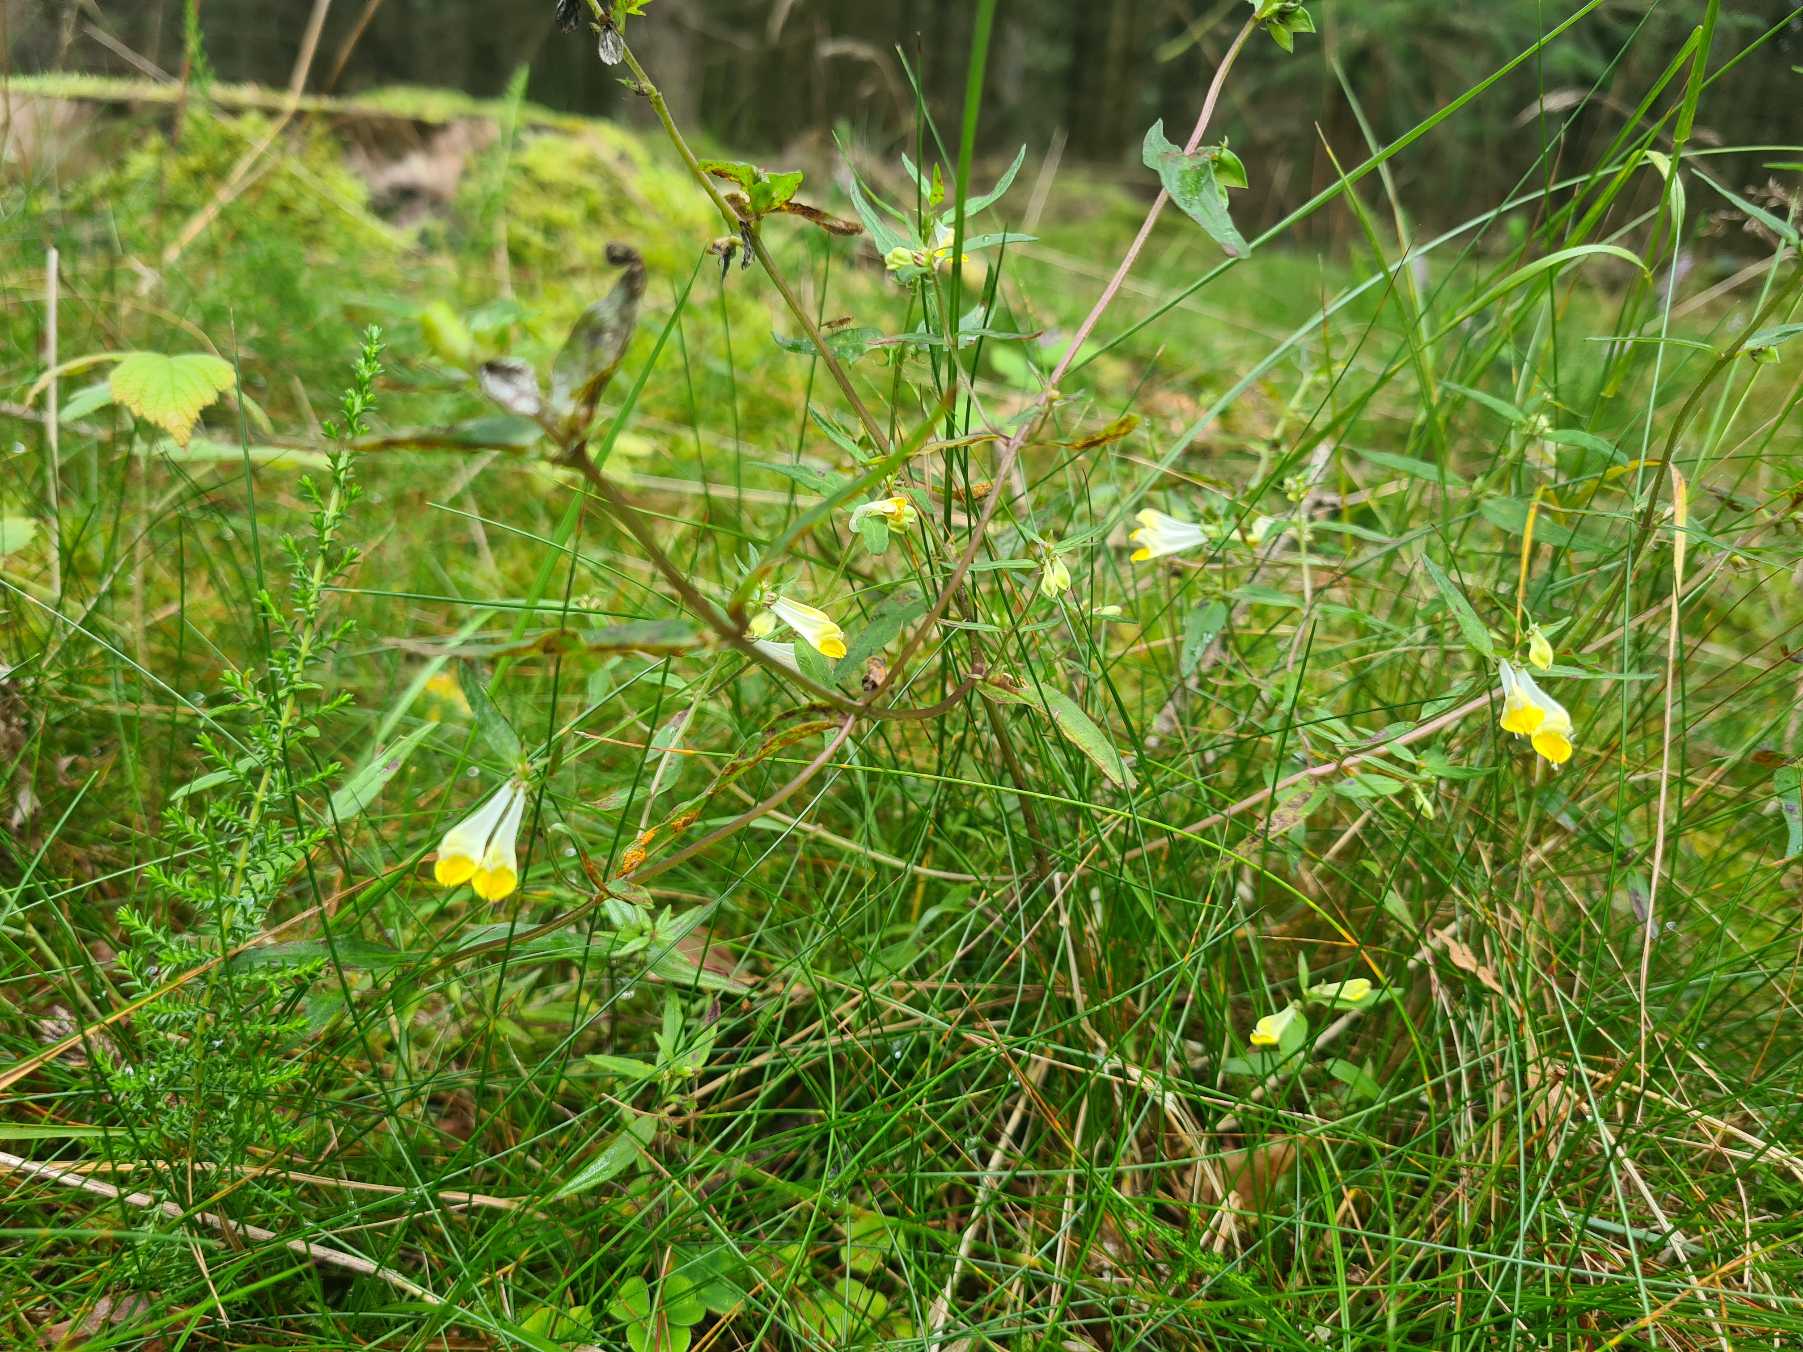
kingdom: Plantae
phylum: Tracheophyta
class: Magnoliopsida
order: Lamiales
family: Orobanchaceae
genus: Melampyrum
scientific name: Melampyrum pratense
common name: Almindelig kohvede
